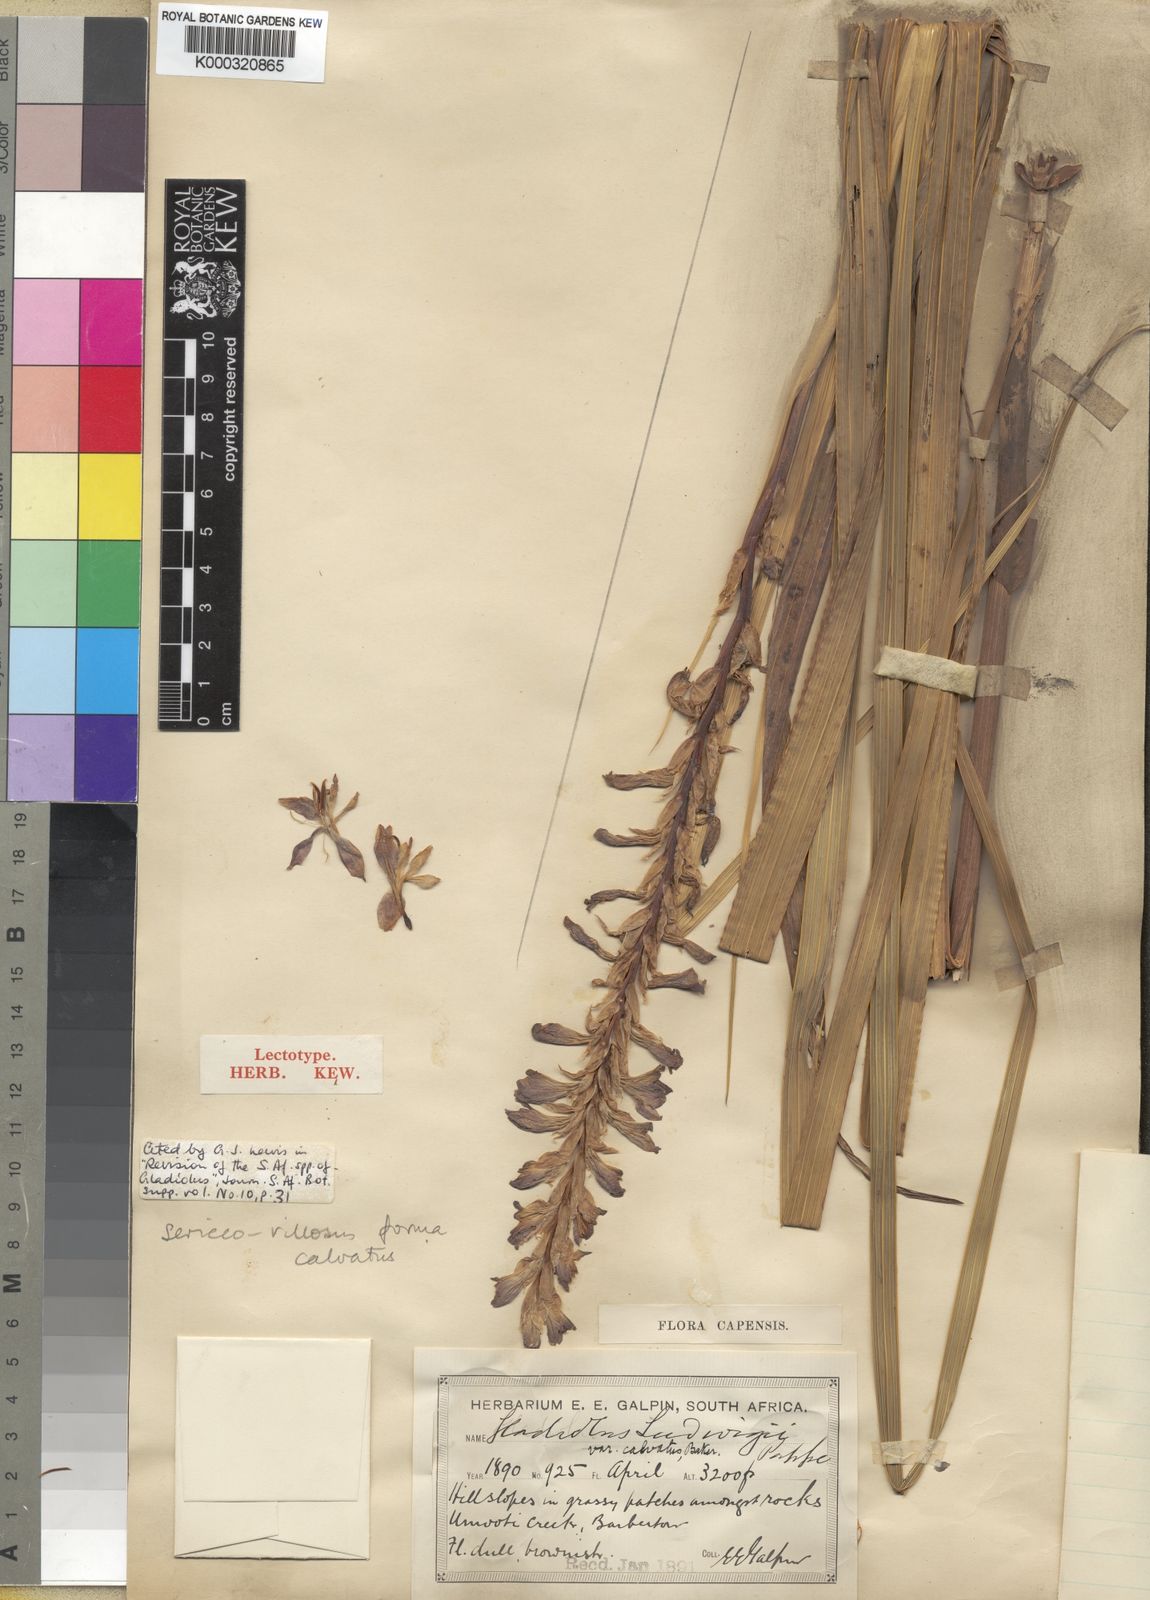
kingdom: Plantae
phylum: Tracheophyta
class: Liliopsida
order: Asparagales
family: Iridaceae
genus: Gladiolus
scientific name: Gladiolus sericeovillosus
